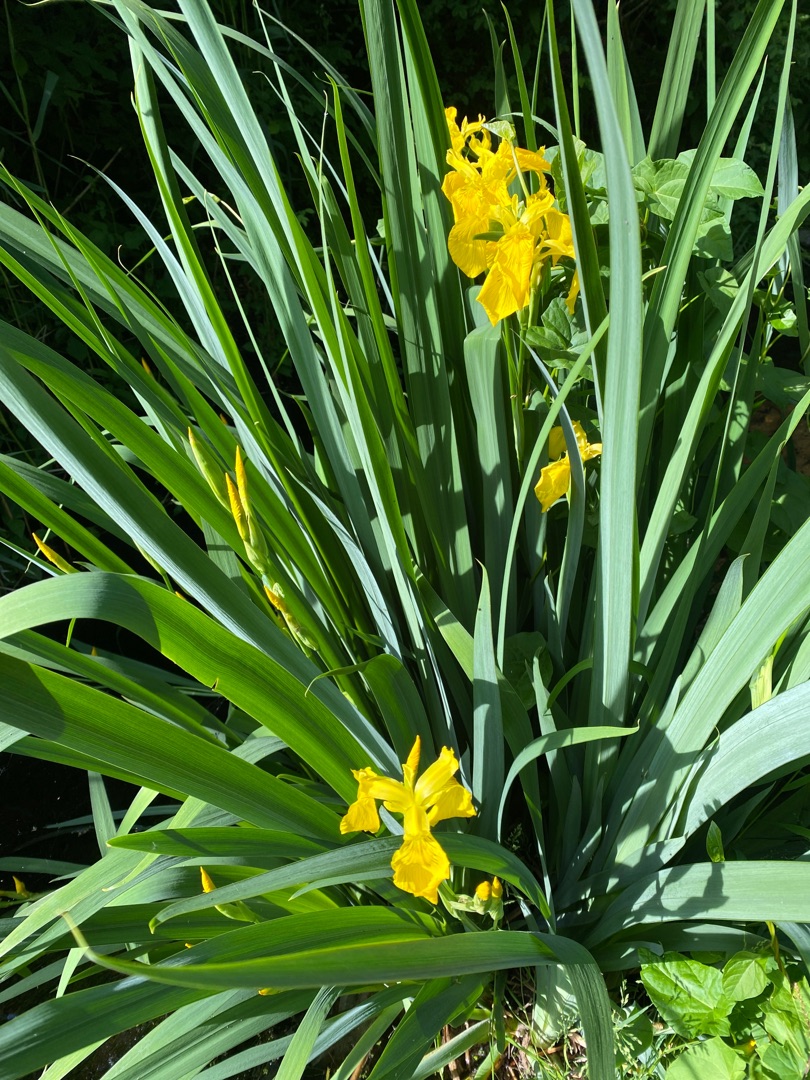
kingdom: Plantae
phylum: Tracheophyta
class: Liliopsida
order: Asparagales
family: Iridaceae
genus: Iris
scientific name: Iris pseudacorus
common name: Gul iris
